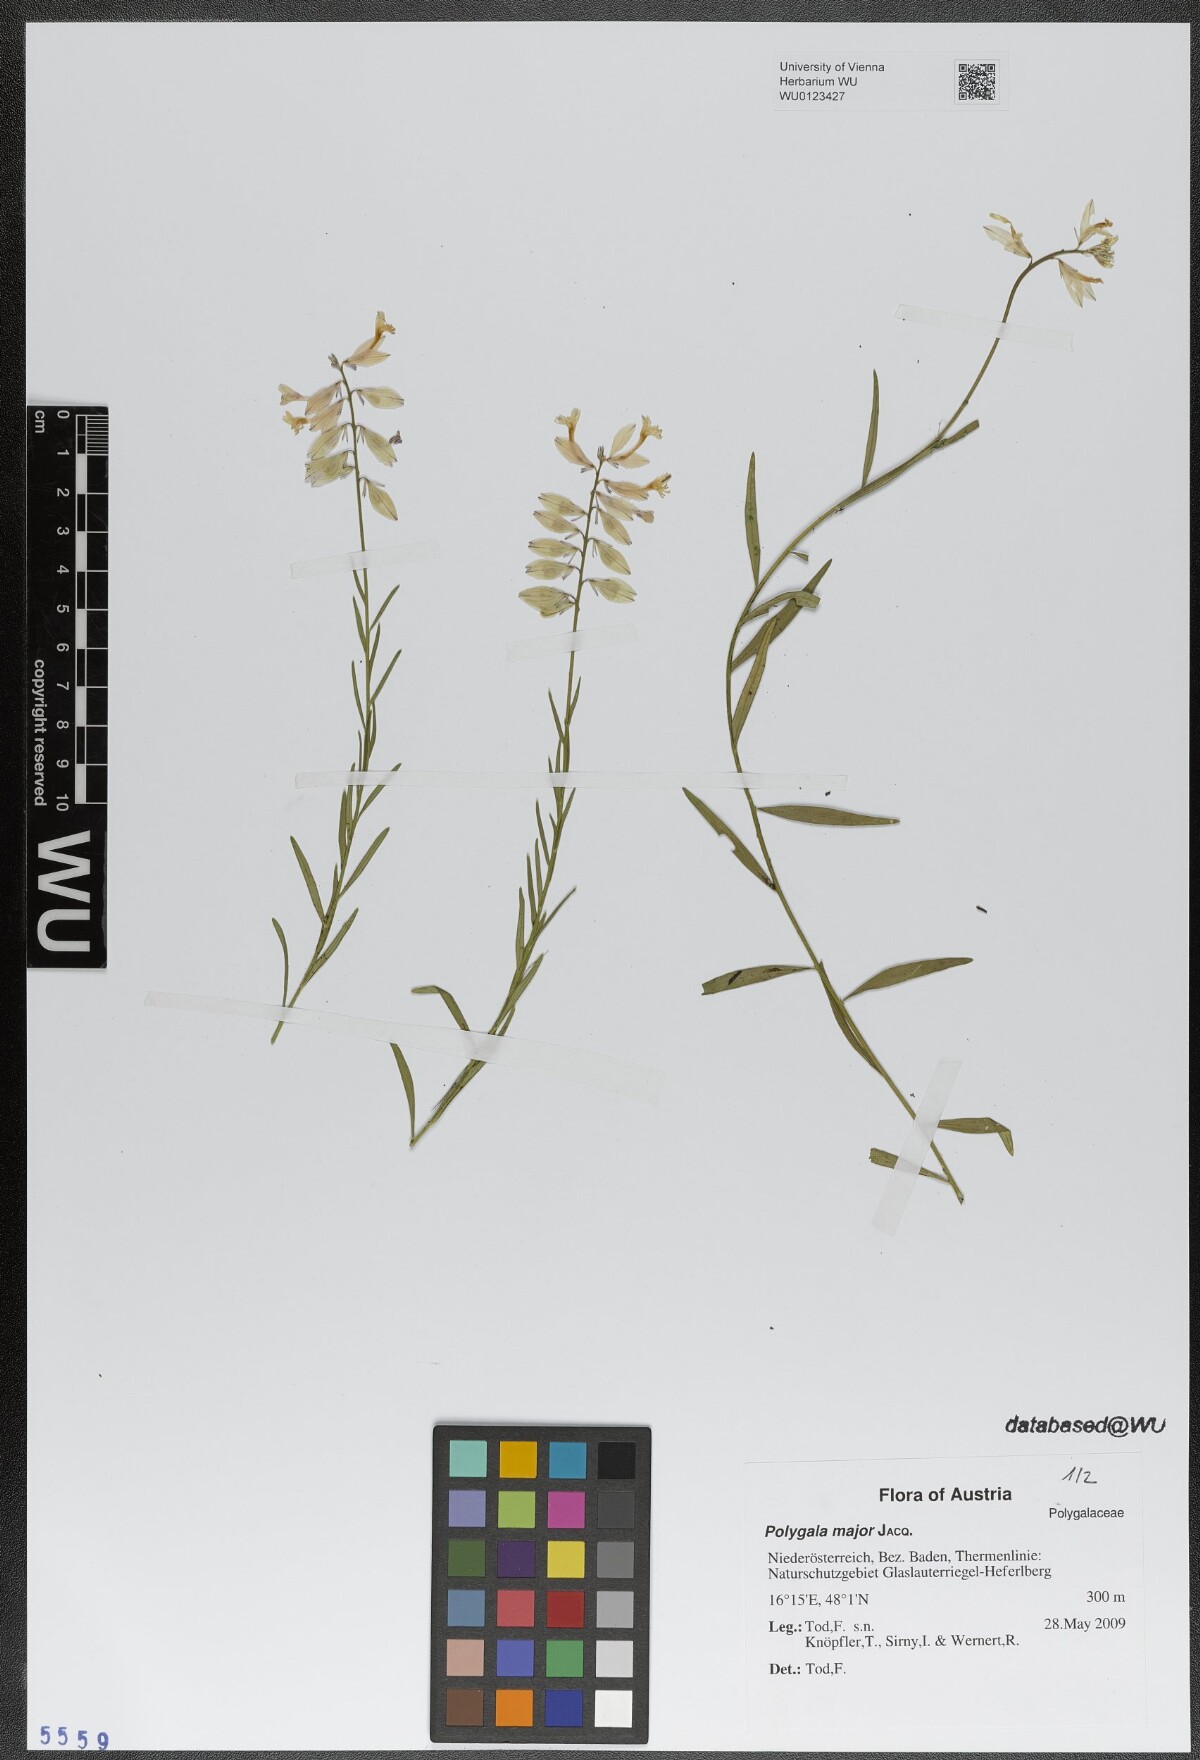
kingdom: Plantae
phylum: Tracheophyta
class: Magnoliopsida
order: Fabales
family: Polygalaceae
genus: Polygala
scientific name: Polygala major
